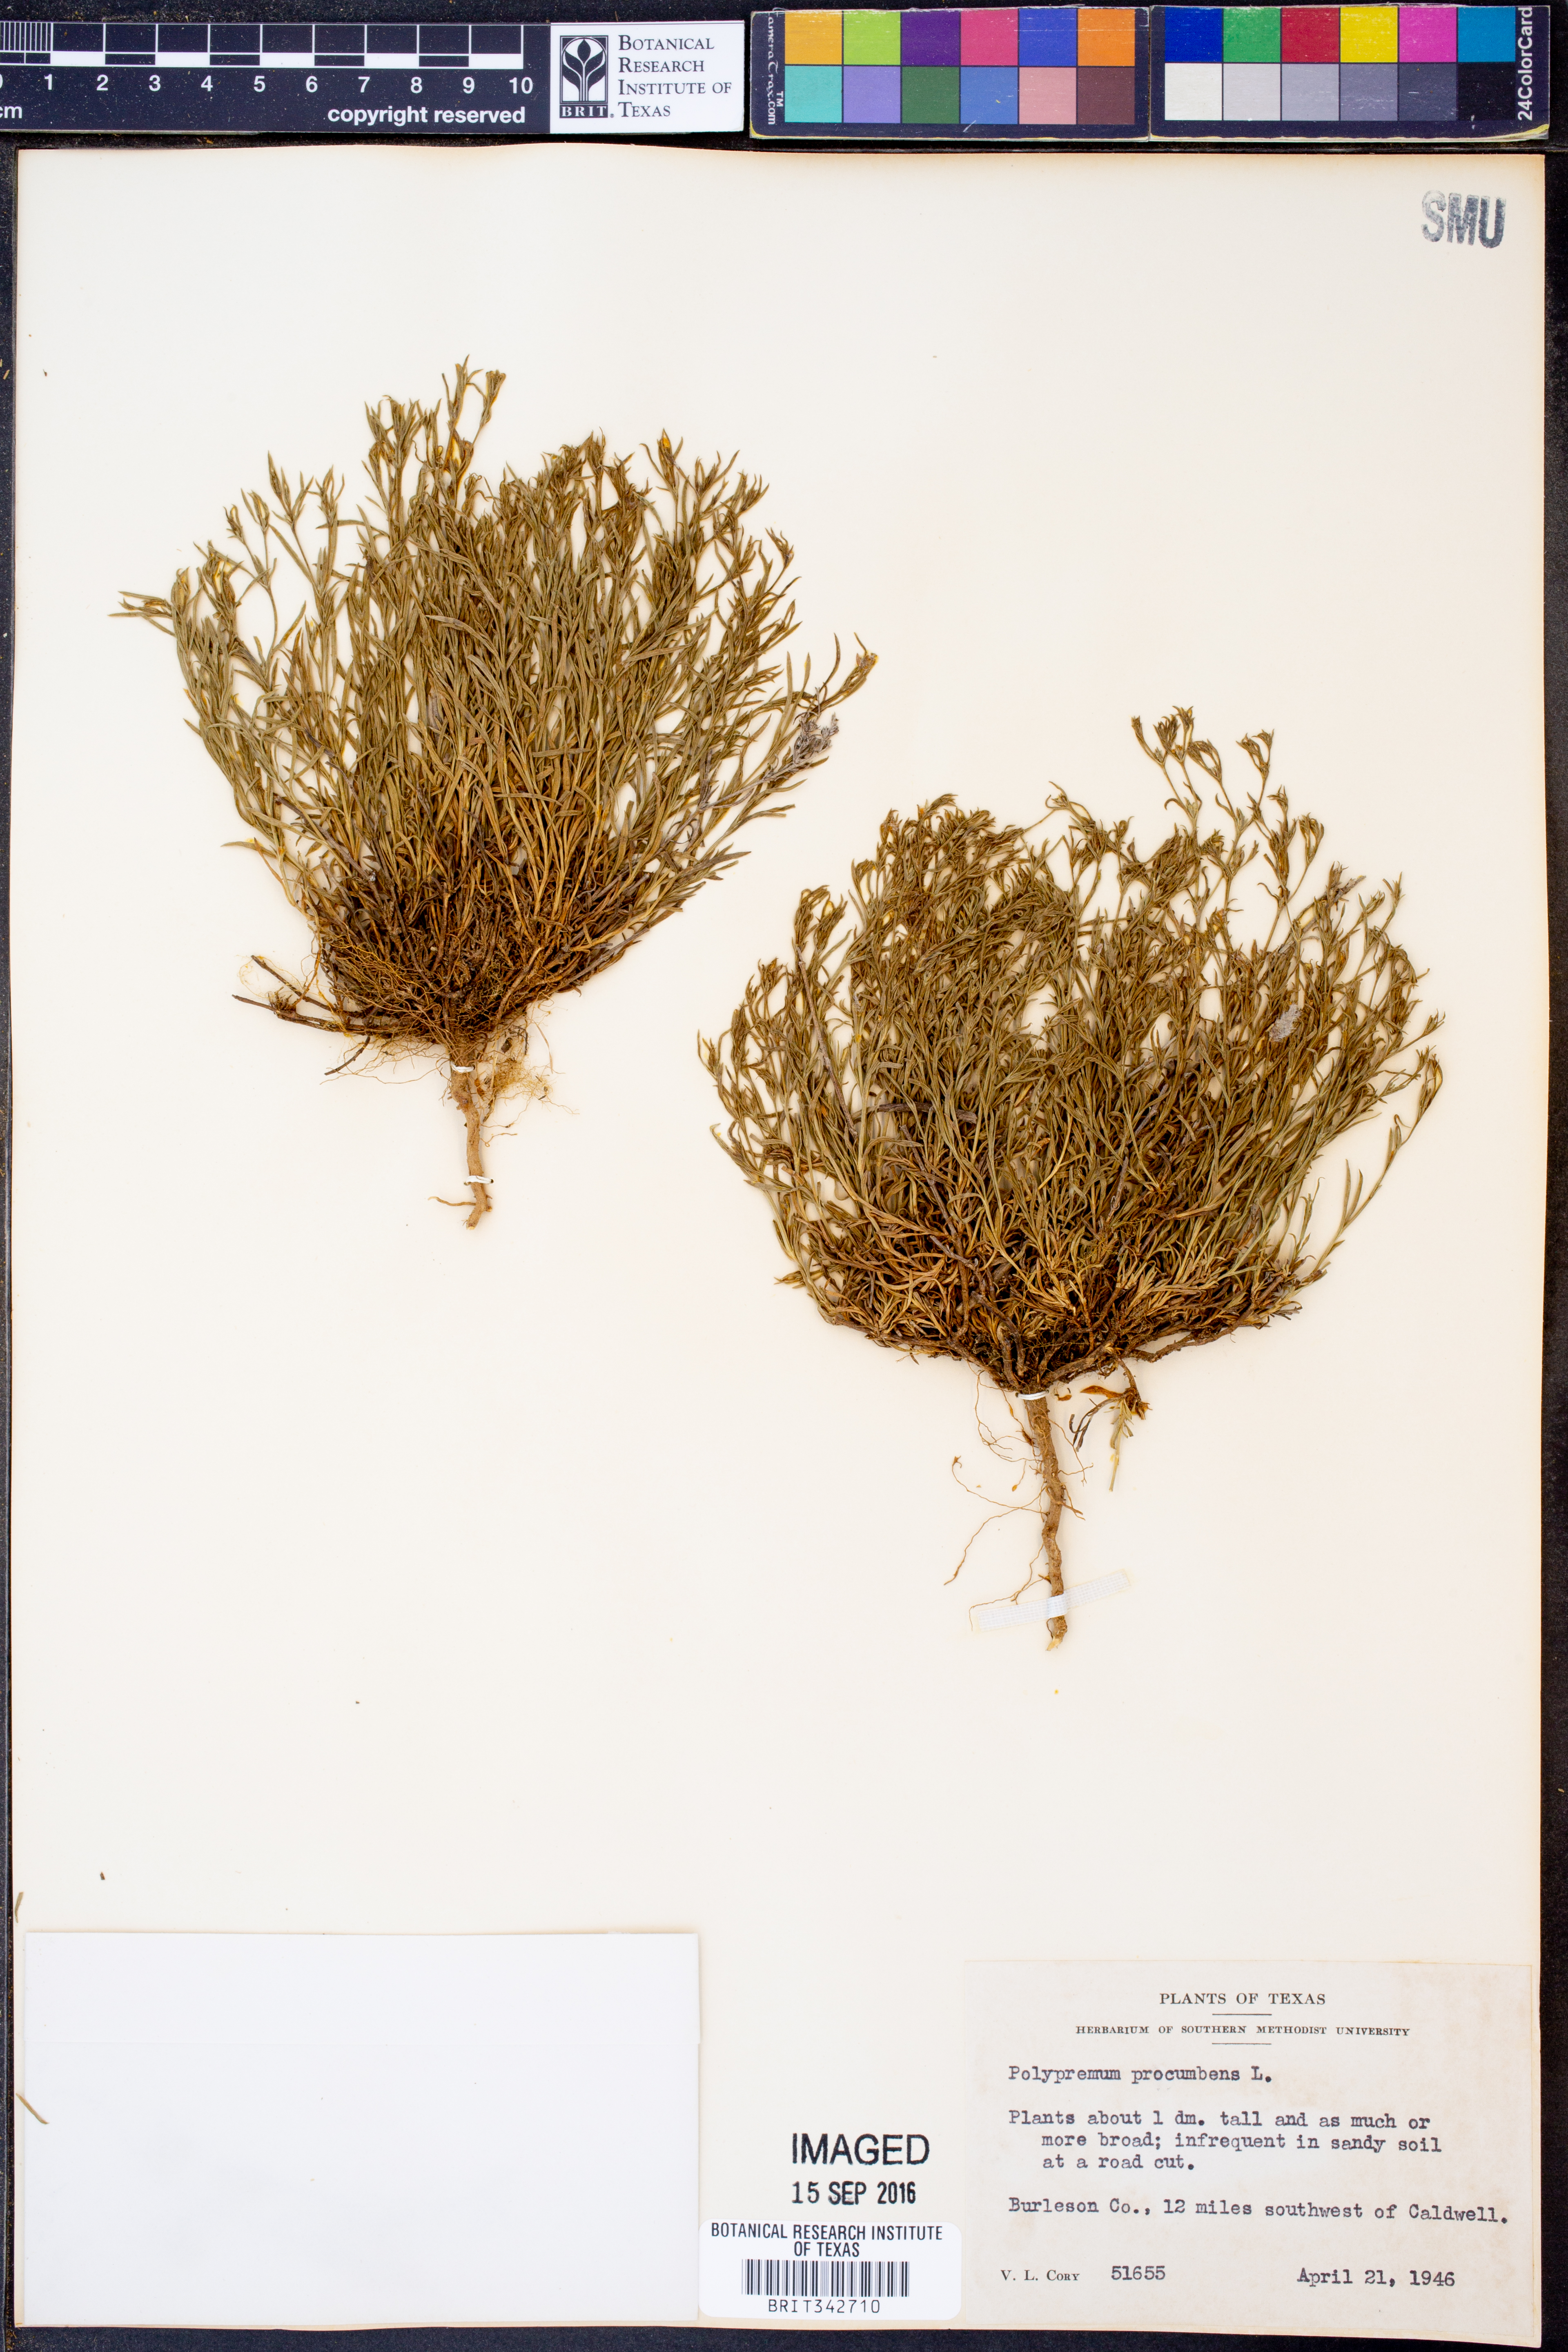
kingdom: Plantae
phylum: Tracheophyta
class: Magnoliopsida
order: Lamiales
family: Tetrachondraceae
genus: Polypremum
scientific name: Polypremum procumbens
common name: Juniper-leaf
